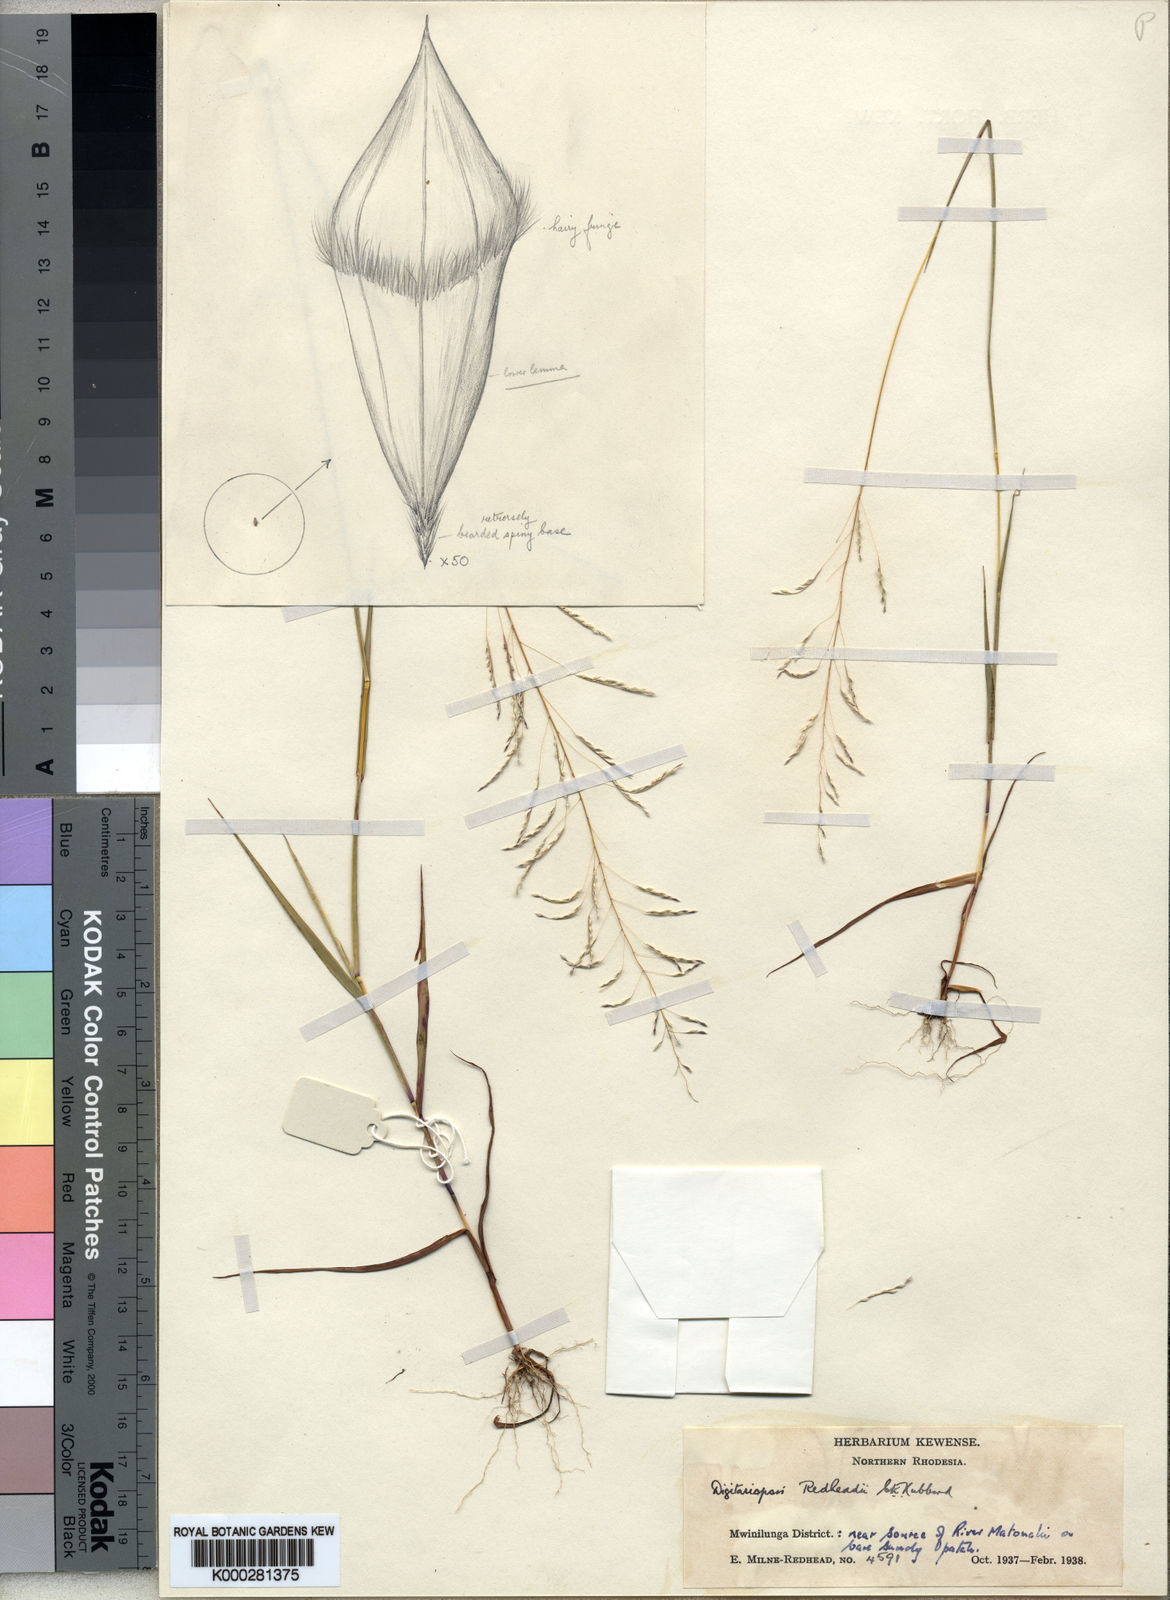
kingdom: Plantae
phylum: Tracheophyta
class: Liliopsida
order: Poales
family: Poaceae
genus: Digitaria
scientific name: Digitaria redheadii
